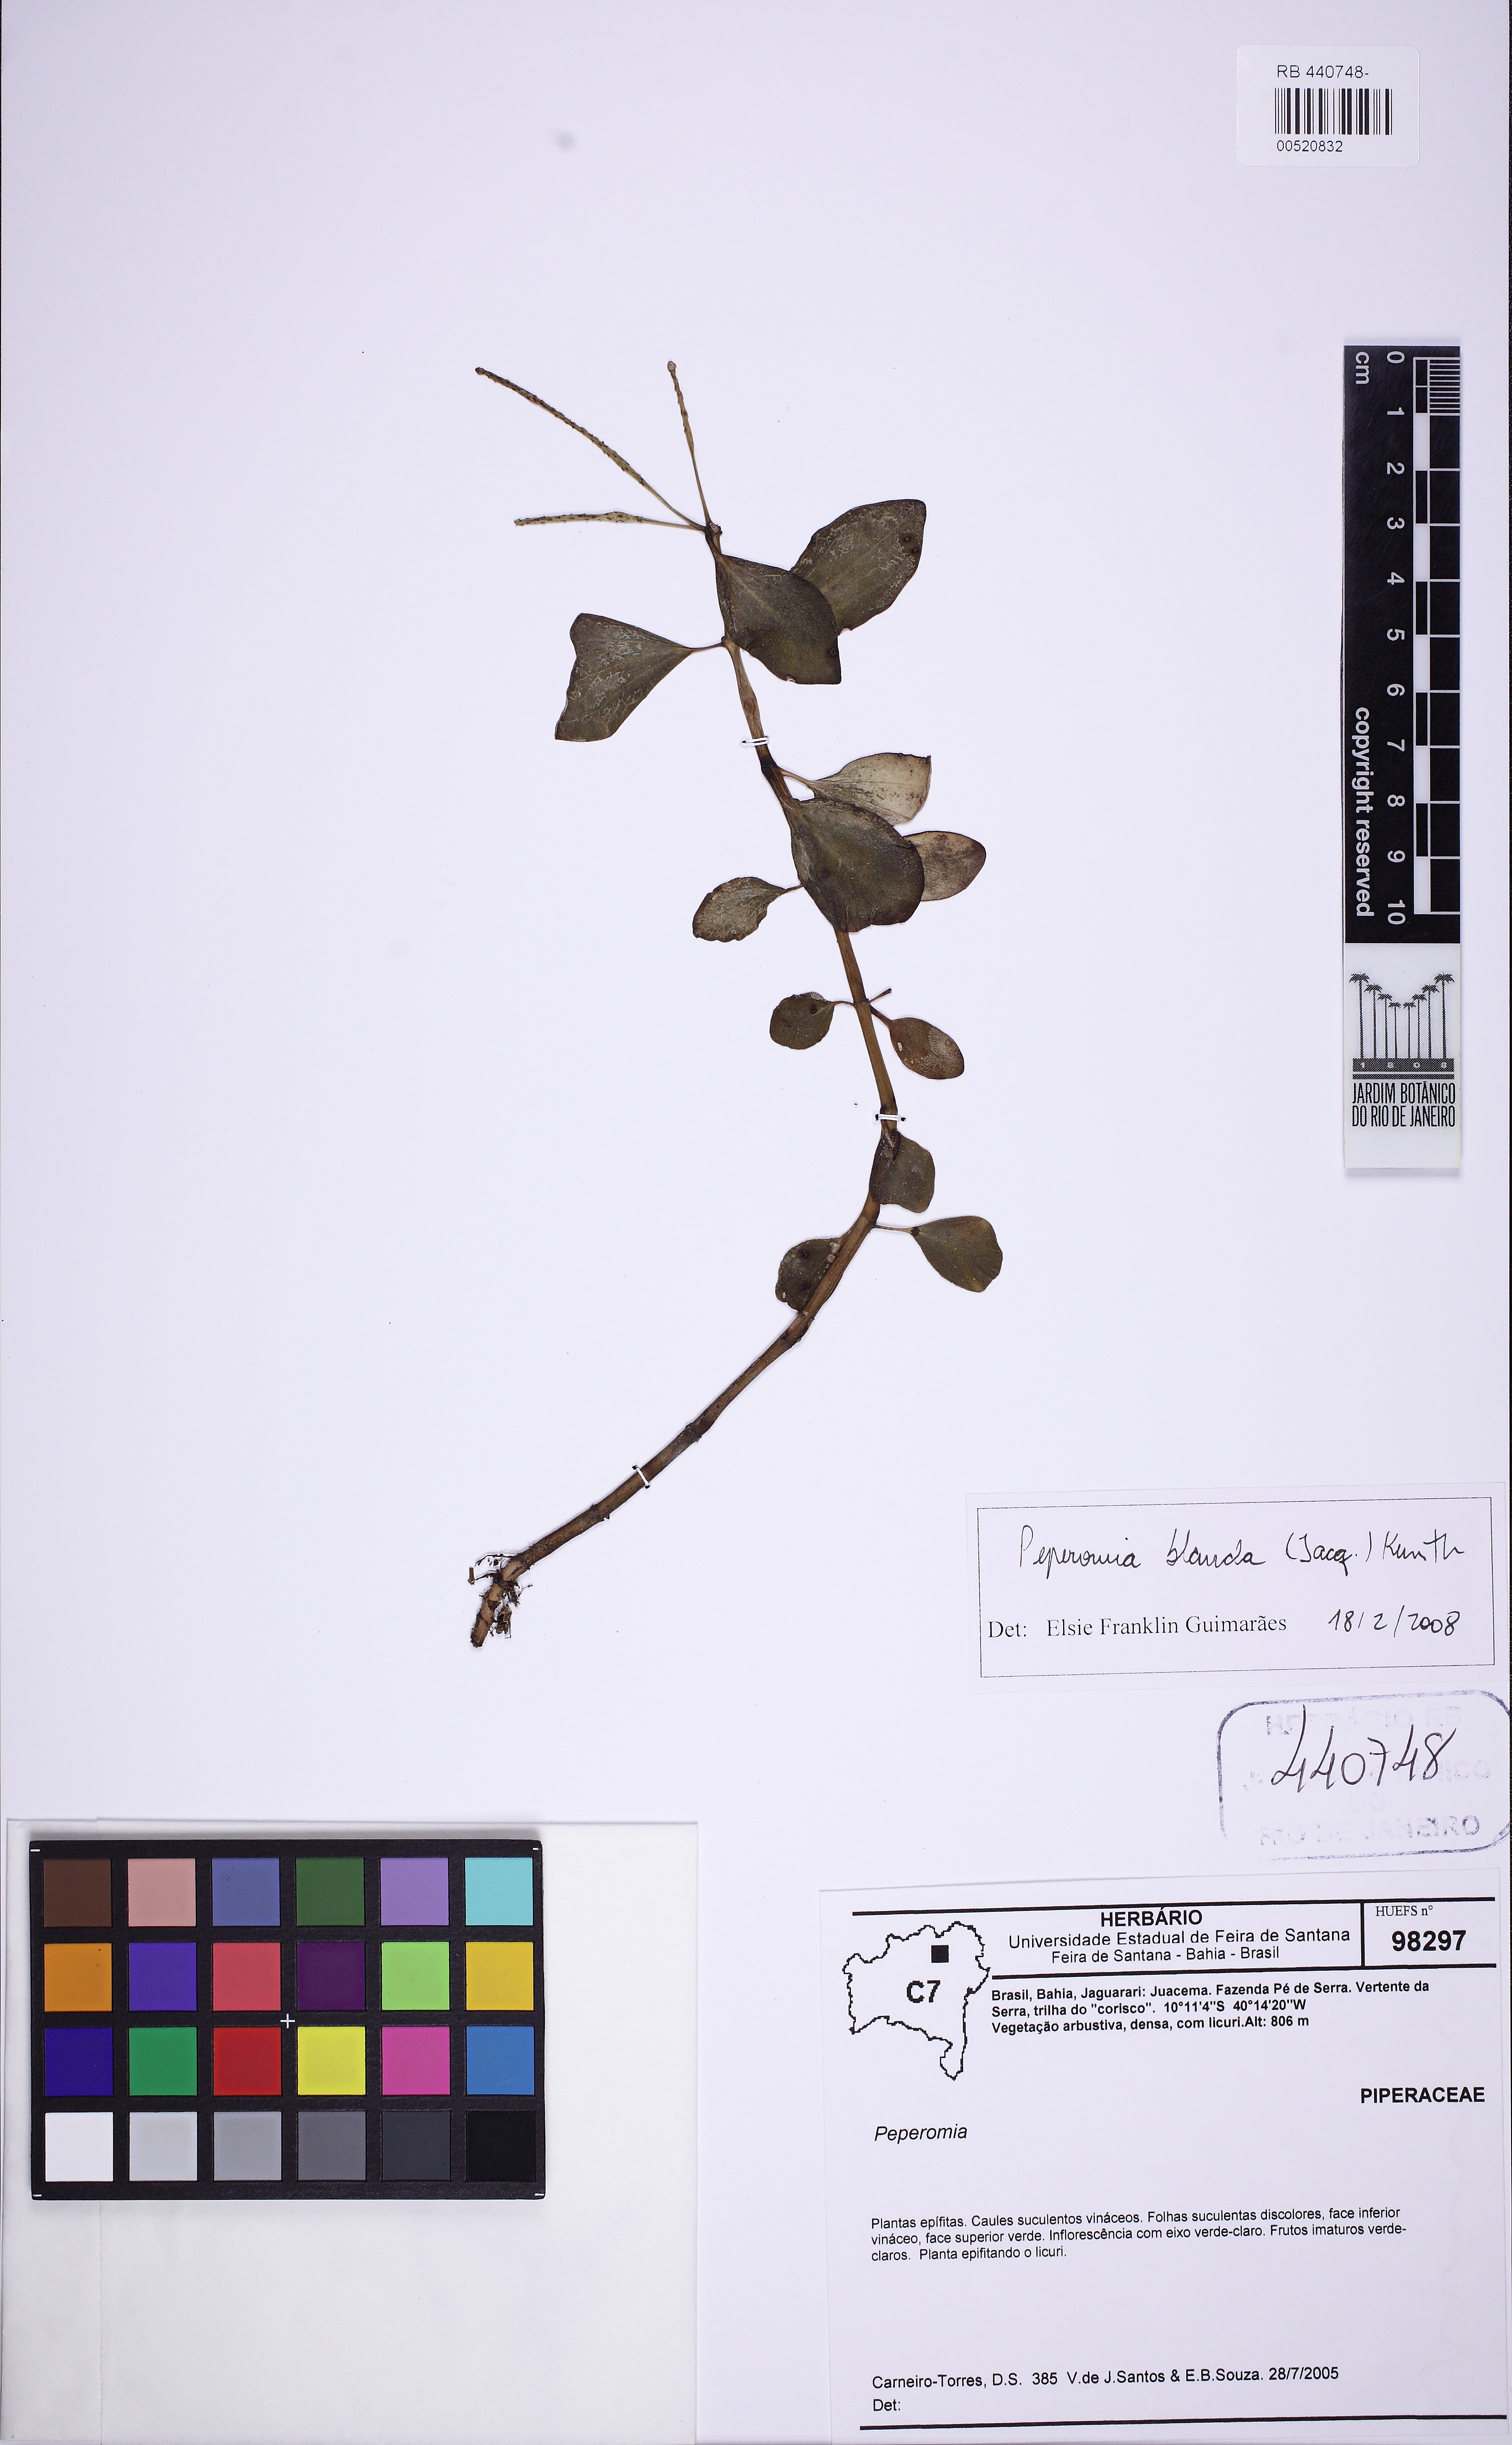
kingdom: Plantae
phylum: Tracheophyta
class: Magnoliopsida
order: Piperales
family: Piperaceae
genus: Peperomia
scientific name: Peperomia blanda
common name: Arid-land peperomia
